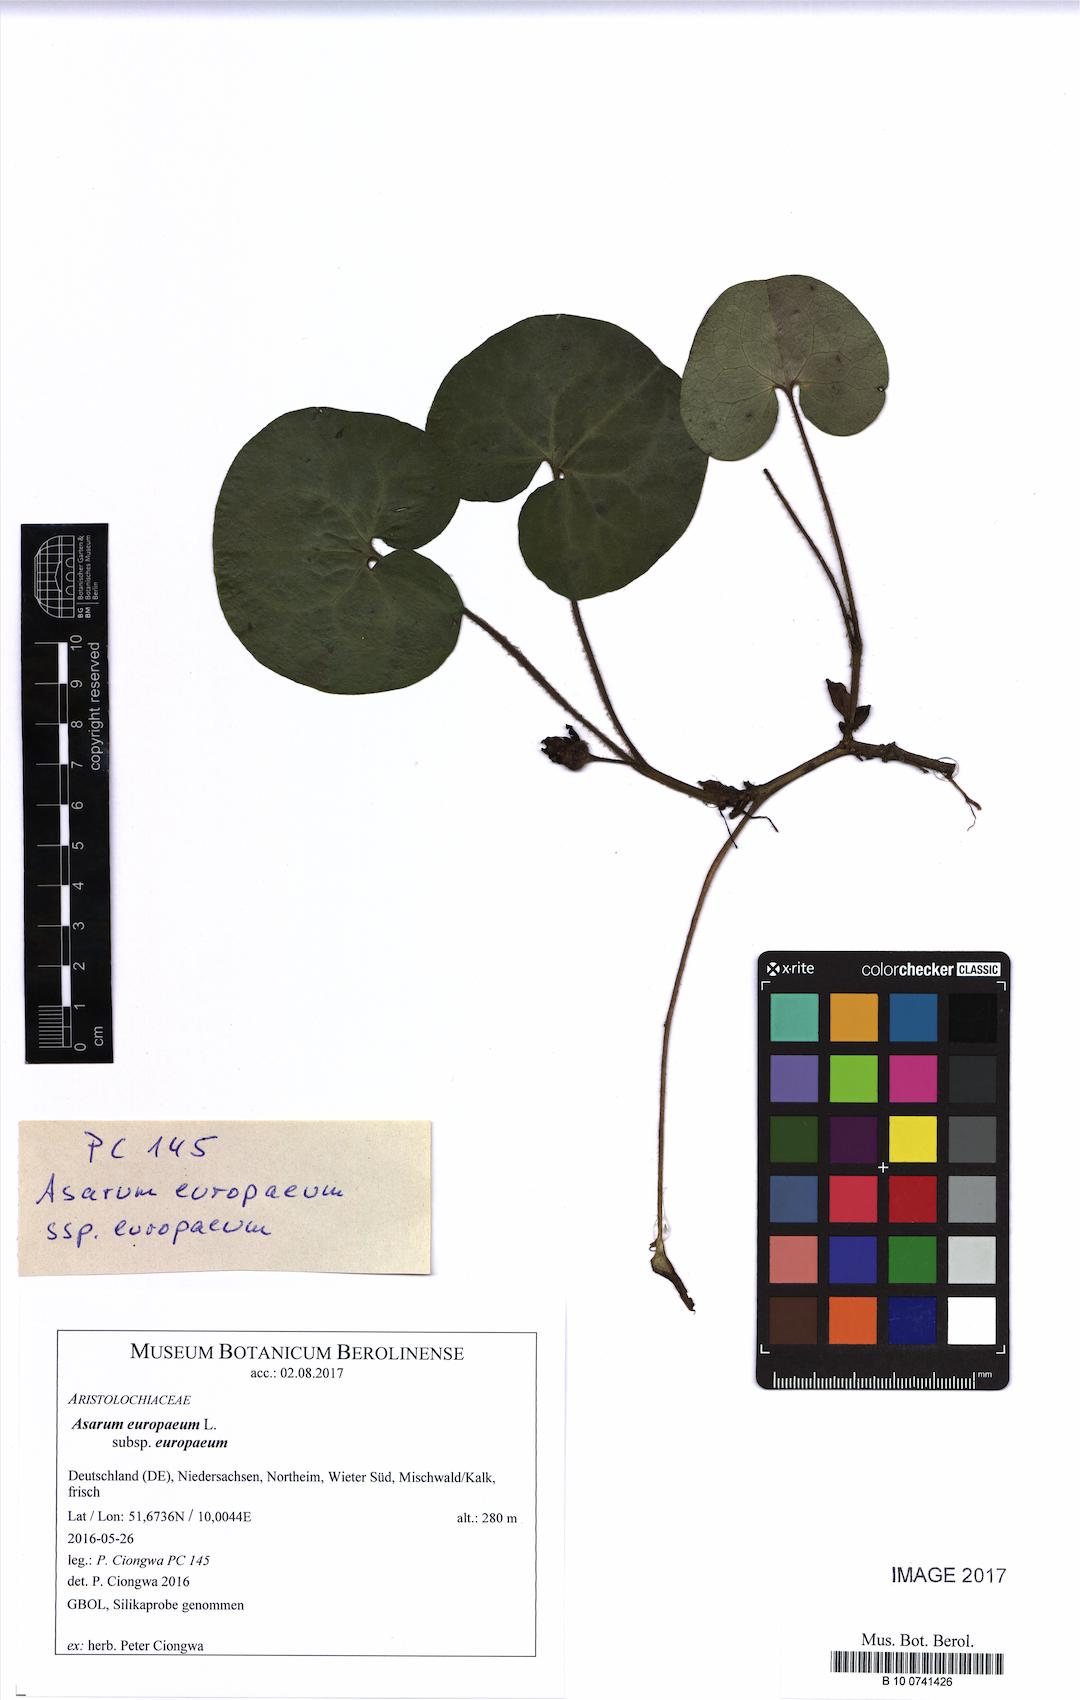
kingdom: Plantae
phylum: Tracheophyta
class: Magnoliopsida
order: Piperales
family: Aristolochiaceae
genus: Asarum
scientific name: Asarum europaeum
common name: Asarabacca
